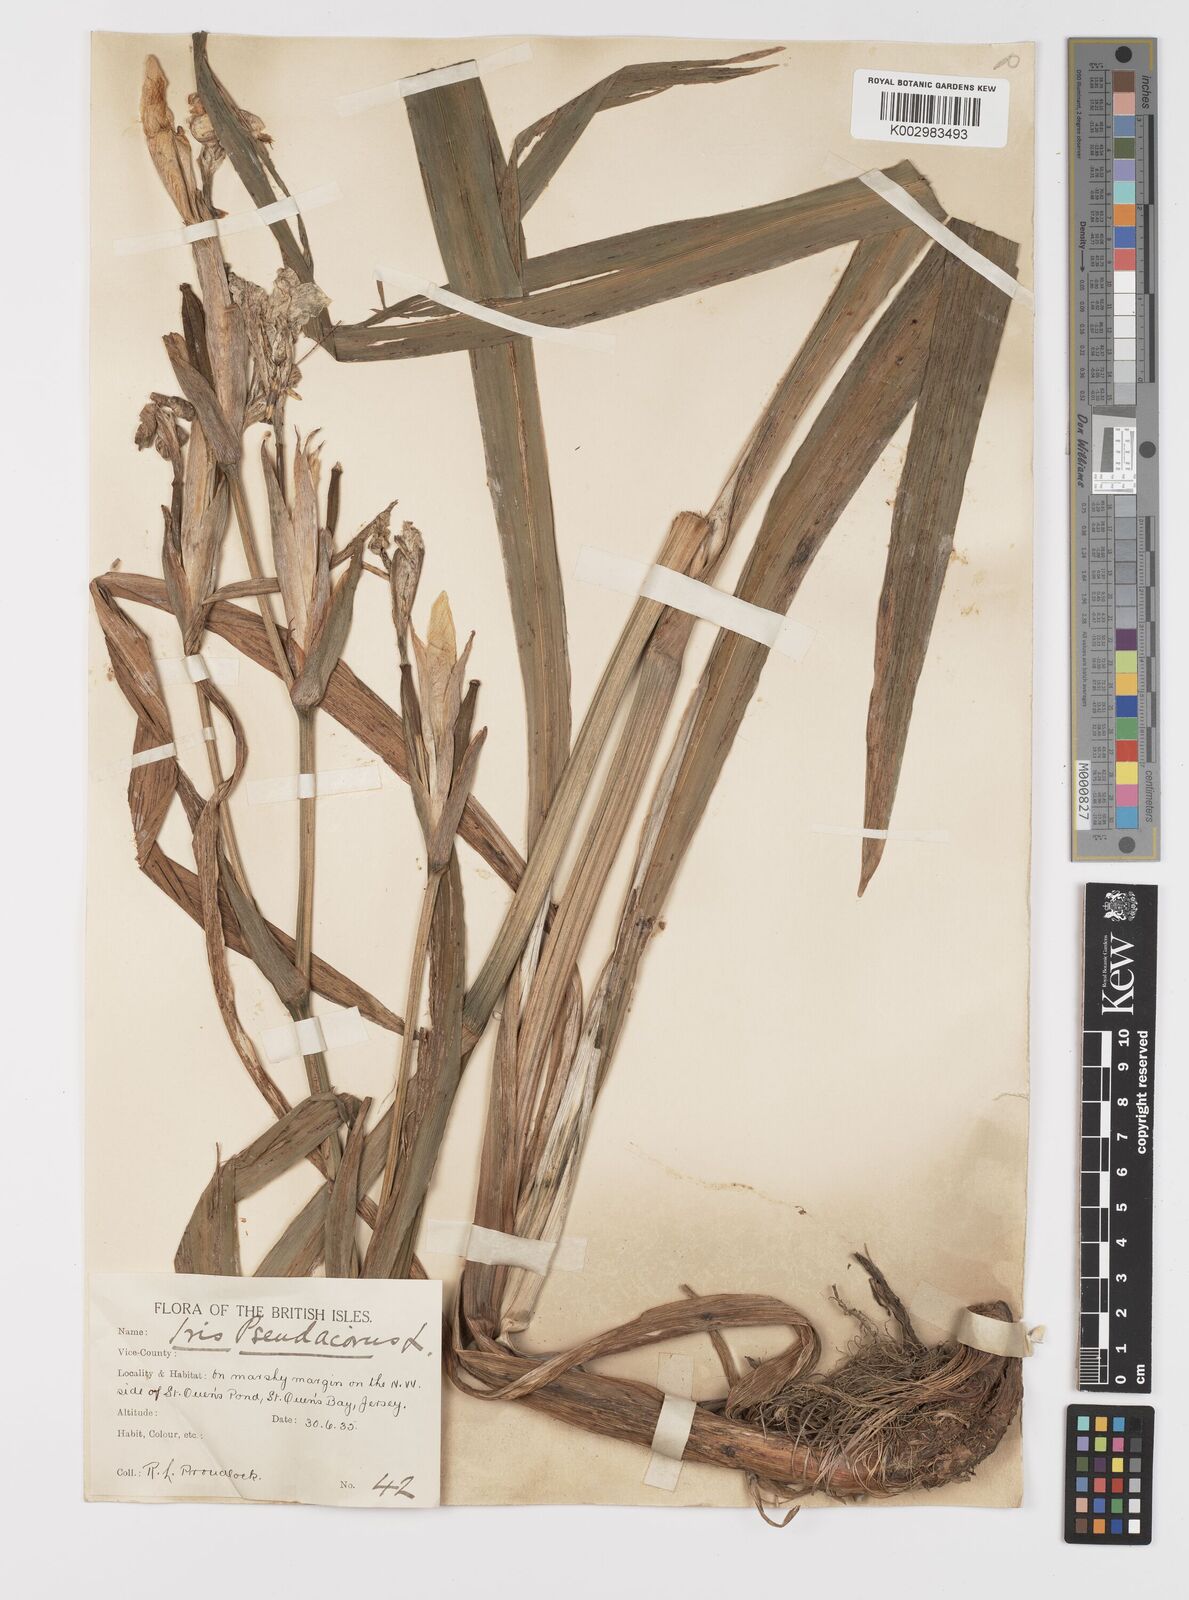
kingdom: Plantae
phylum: Tracheophyta
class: Liliopsida
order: Asparagales
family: Iridaceae
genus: Iris
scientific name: Iris pseudacorus
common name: Yellow flag
